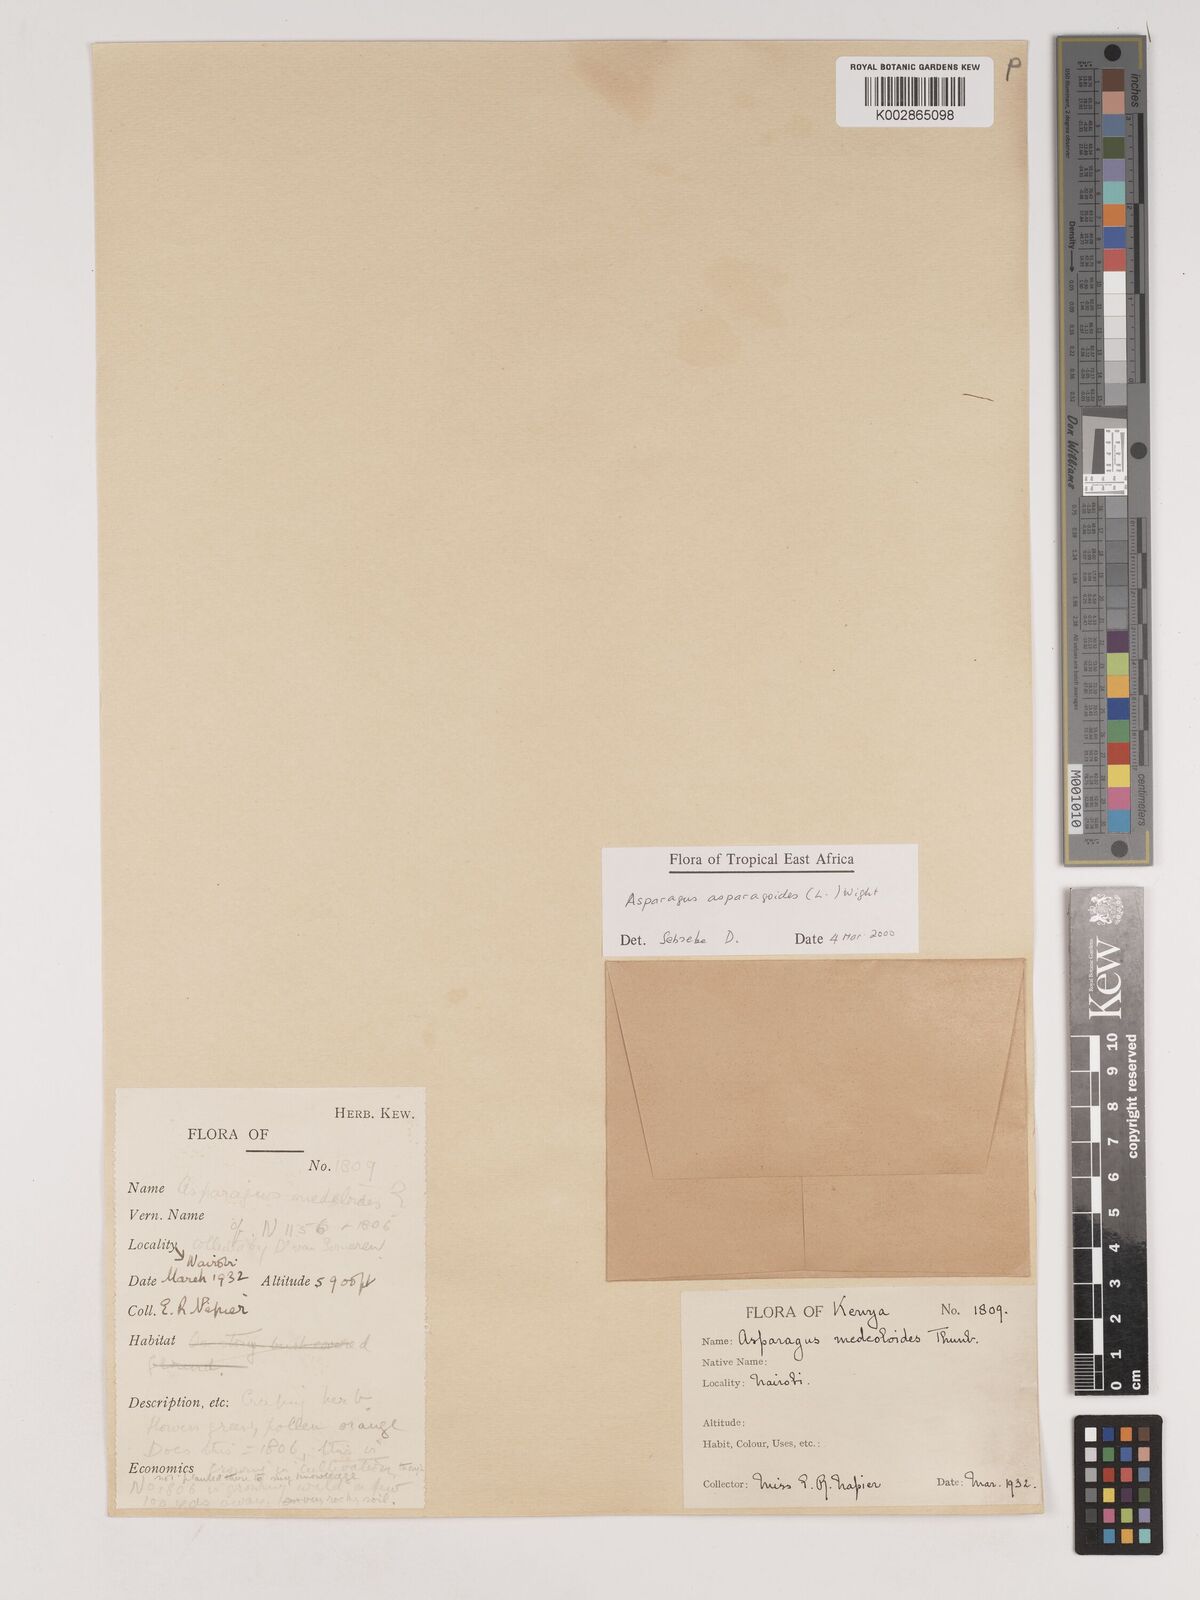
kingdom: Plantae
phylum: Tracheophyta
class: Liliopsida
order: Asparagales
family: Asparagaceae
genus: Asparagus
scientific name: Asparagus asparagoides
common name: African asparagus fern
